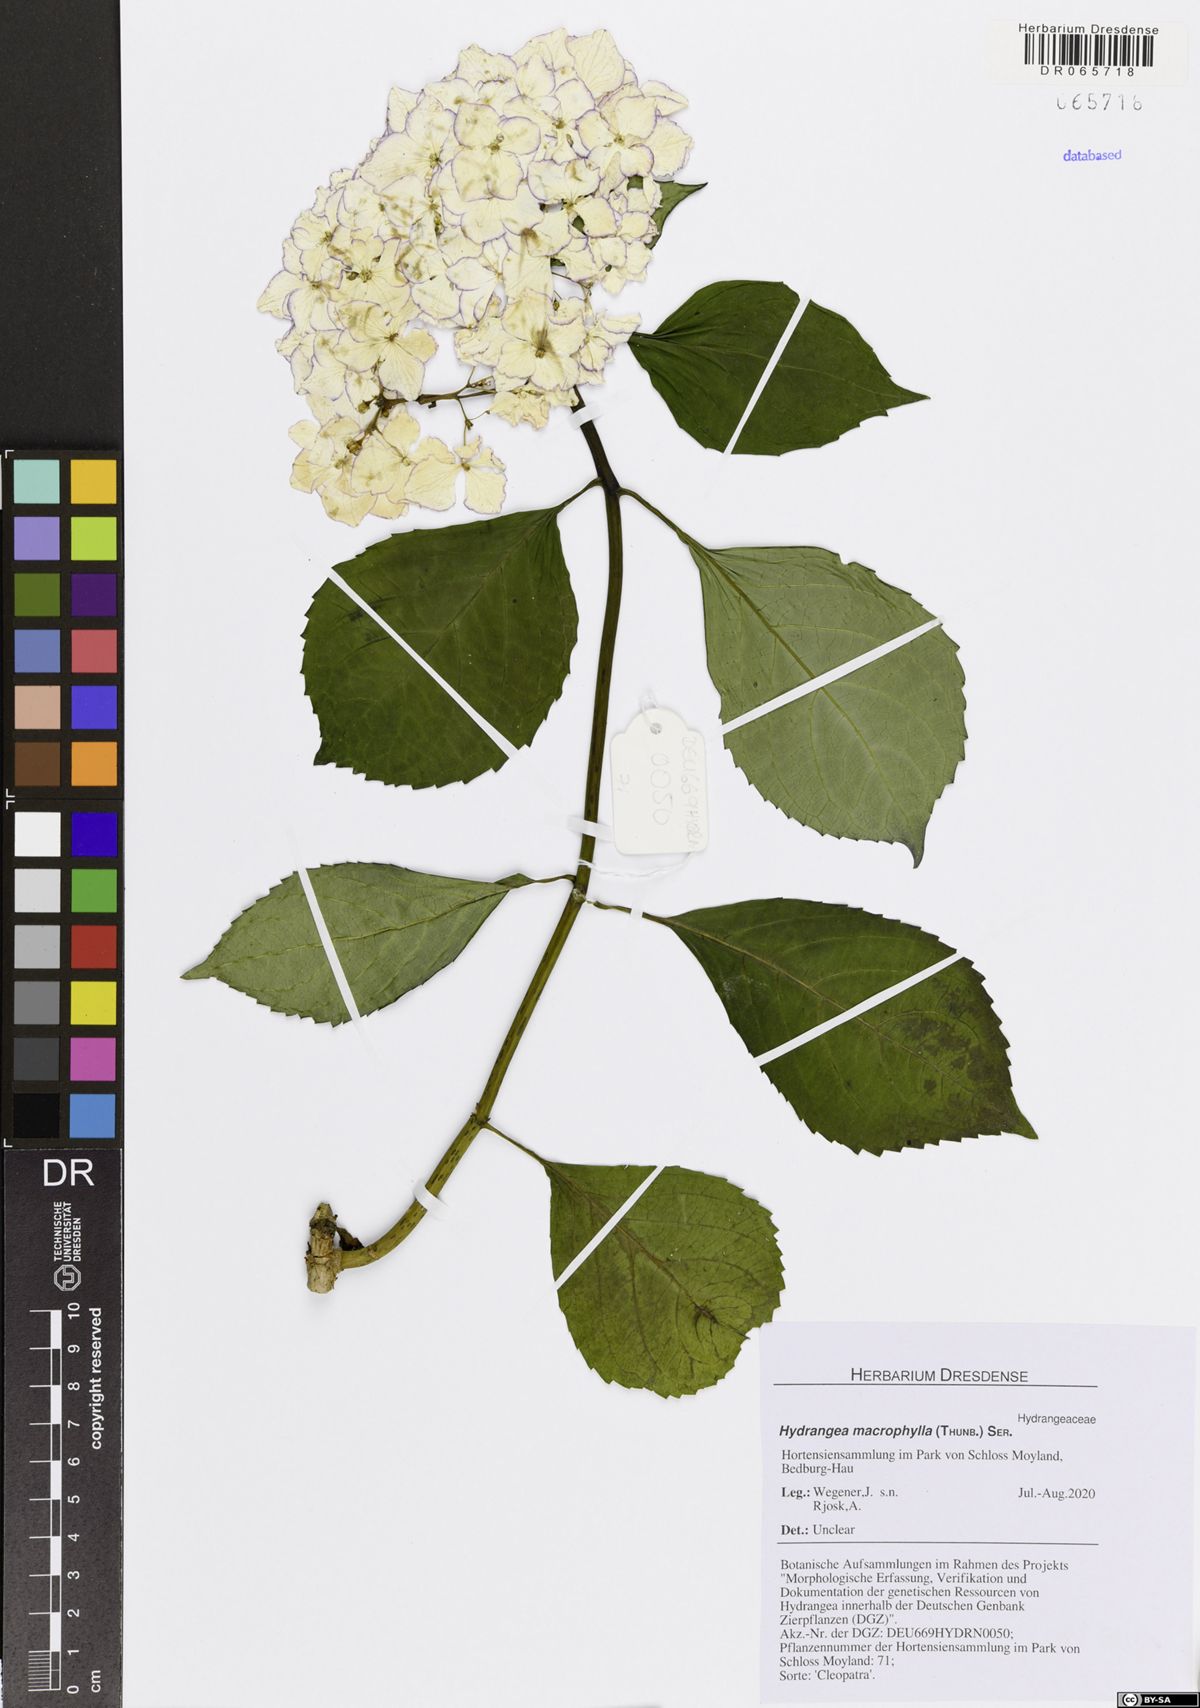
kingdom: Plantae
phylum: Tracheophyta
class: Magnoliopsida
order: Cornales
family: Hydrangeaceae
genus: Hydrangea
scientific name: Hydrangea macrophylla
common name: Hydrangea
